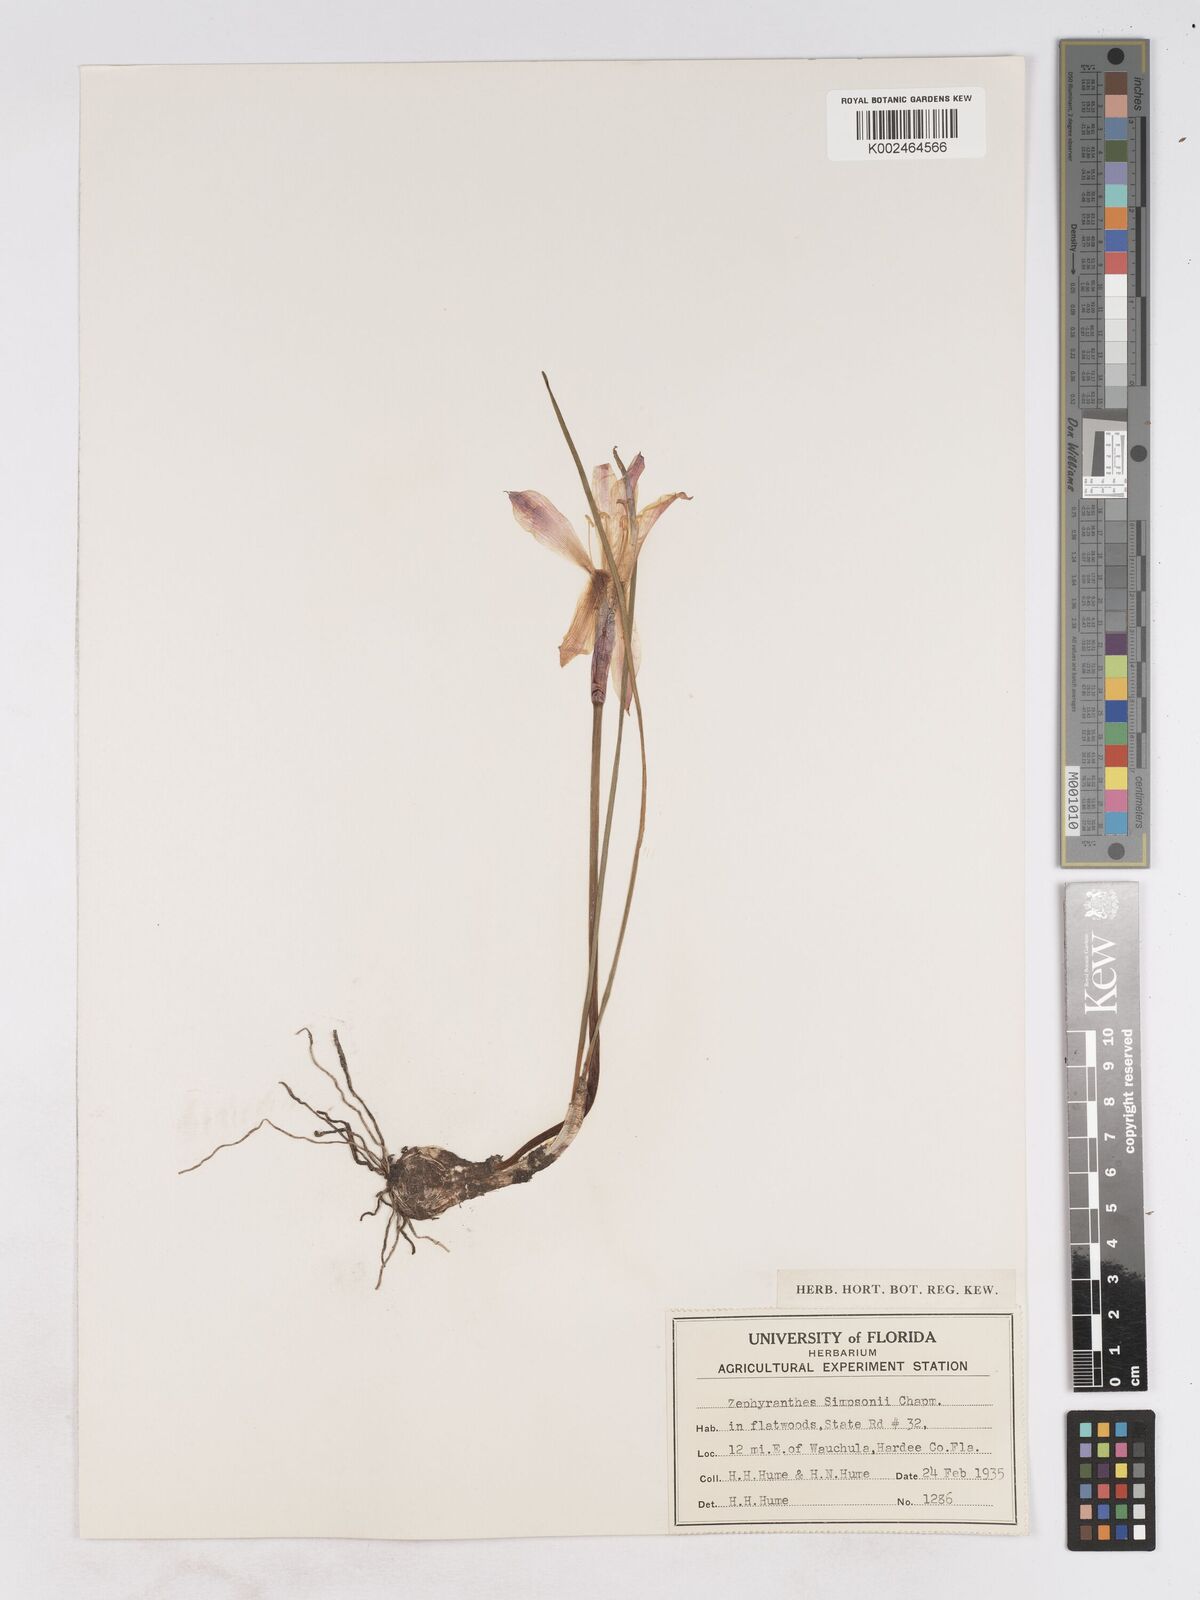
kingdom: Plantae
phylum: Tracheophyta
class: Liliopsida
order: Asparagales
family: Amaryllidaceae
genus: Zephyranthes
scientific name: Zephyranthes simpsonii
